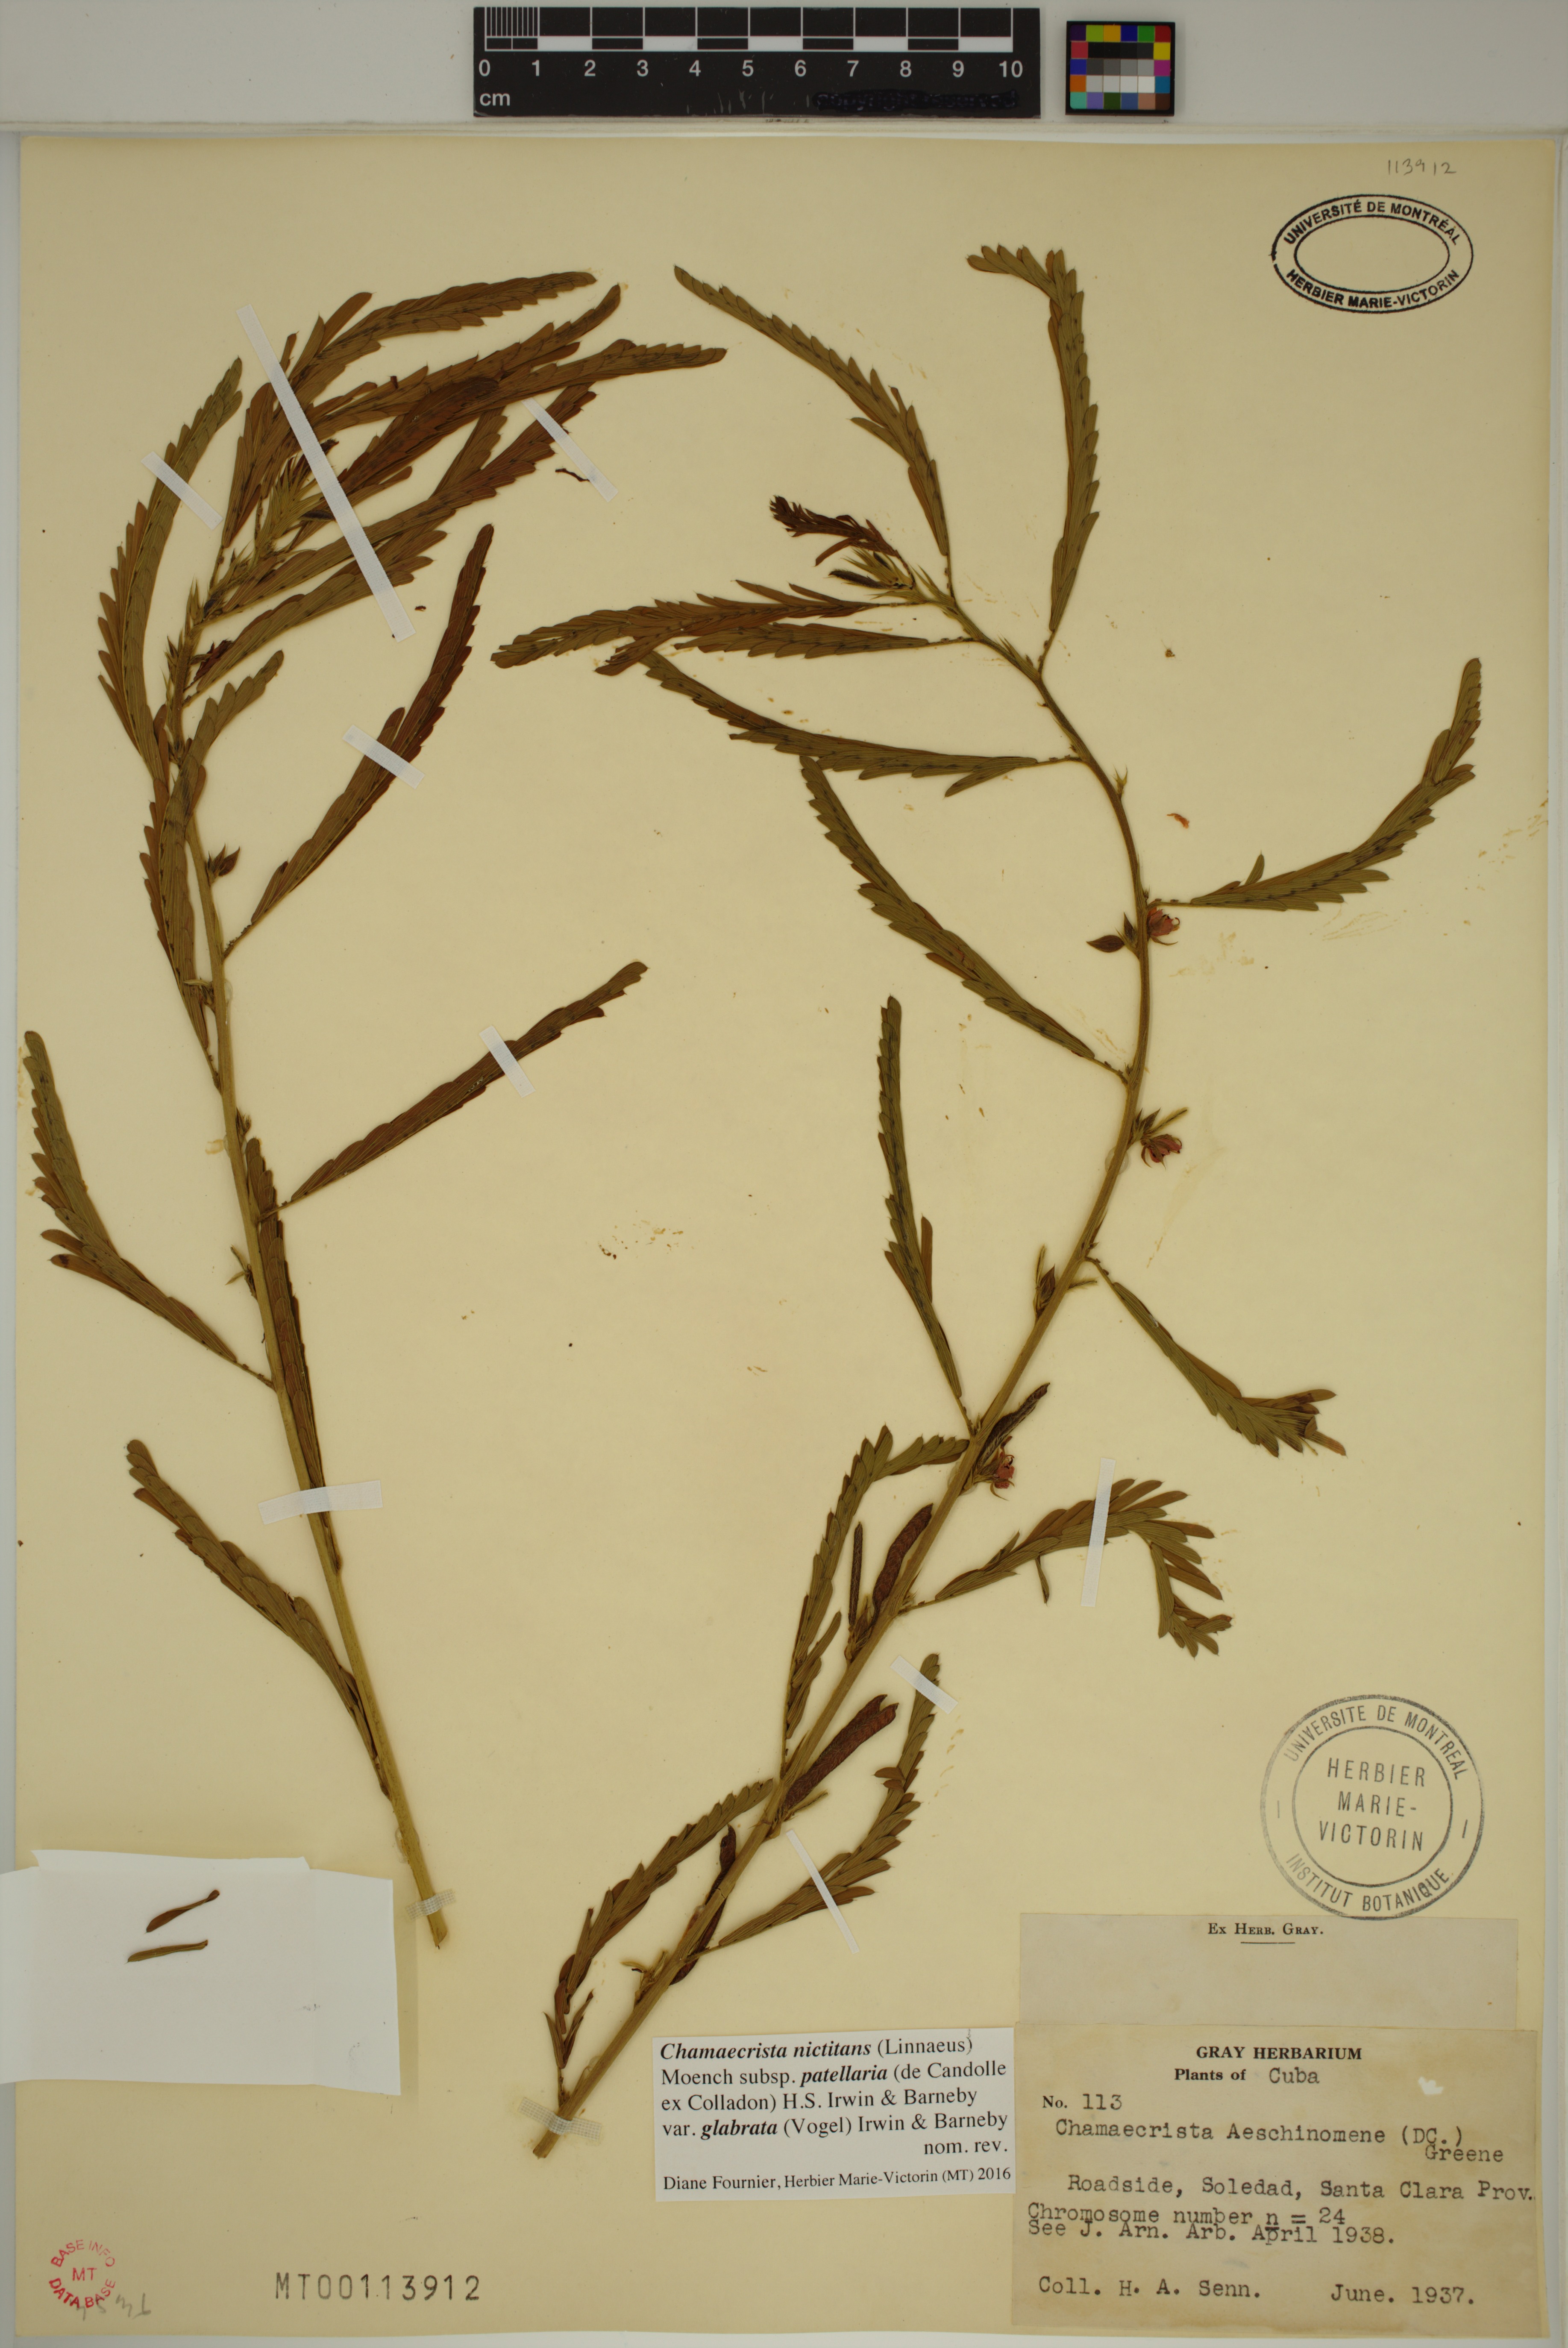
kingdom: Plantae
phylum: Tracheophyta
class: Magnoliopsida
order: Fabales
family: Fabaceae
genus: Chamaecrista
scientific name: Chamaecrista nictitans
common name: Sensitive cassia
